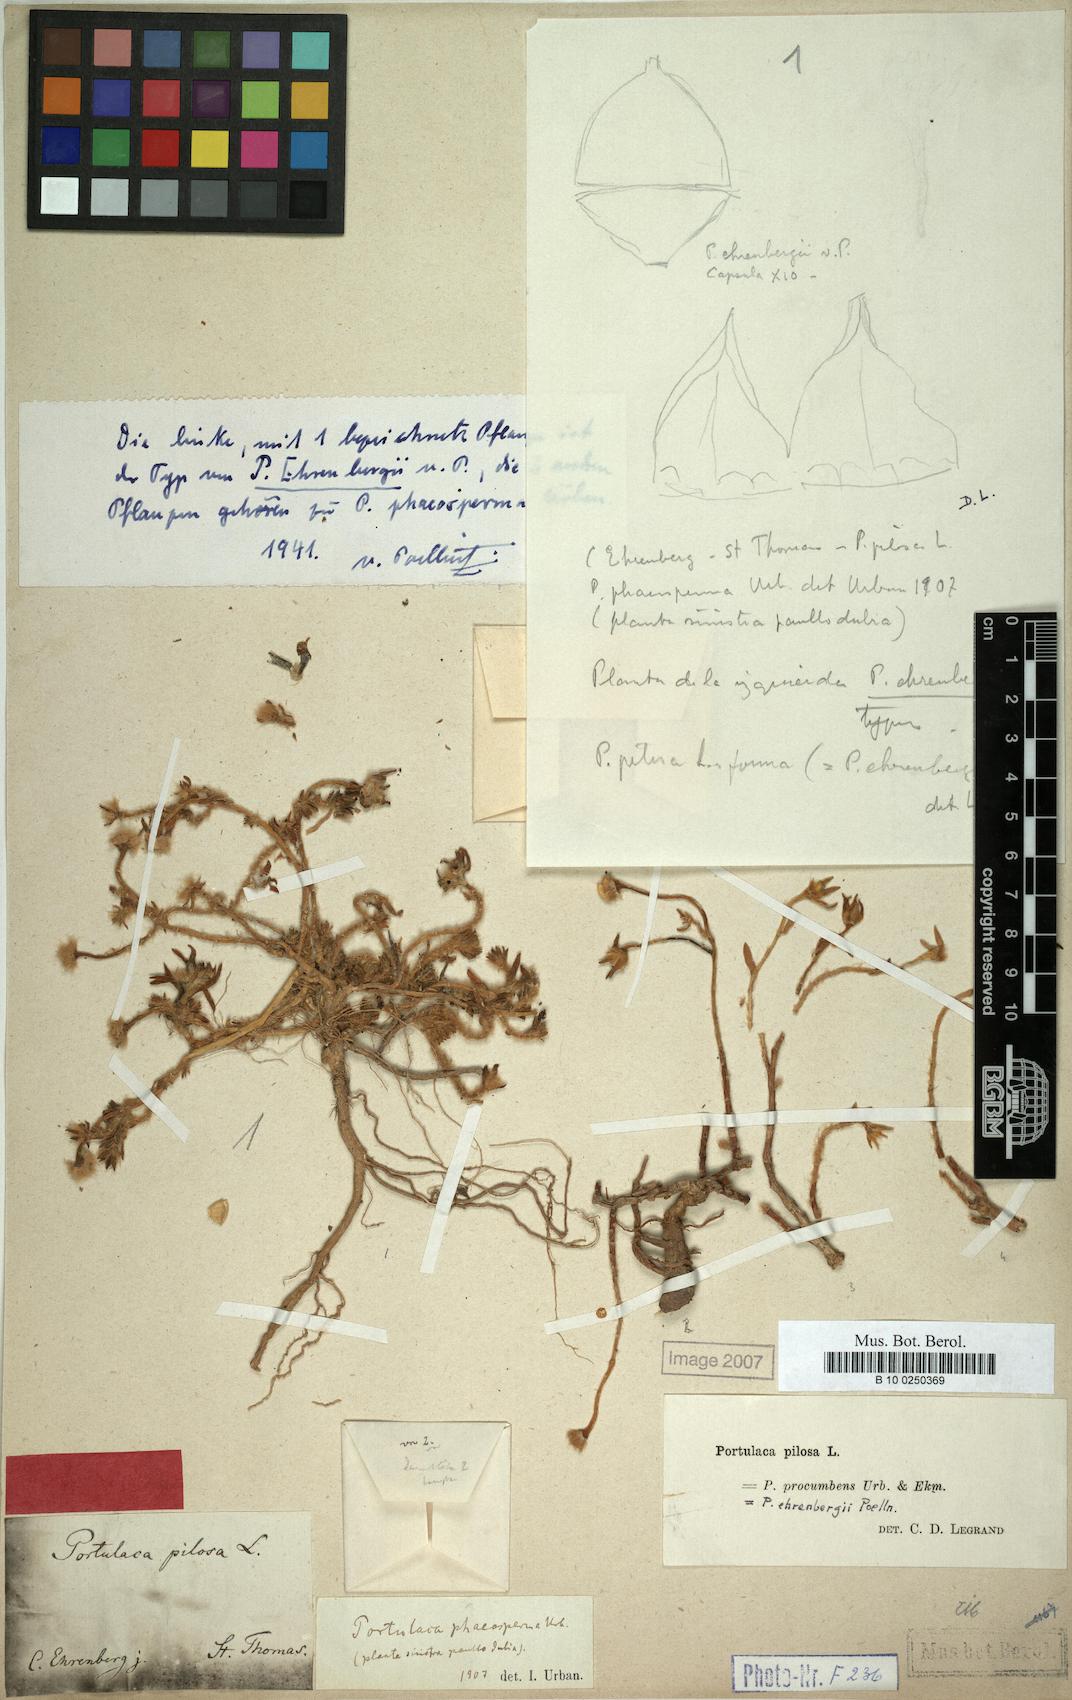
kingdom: Plantae
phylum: Tracheophyta
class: Magnoliopsida
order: Caryophyllales
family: Portulacaceae
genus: Portulaca
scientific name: Portulaca pilosa
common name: Kiss me quick
